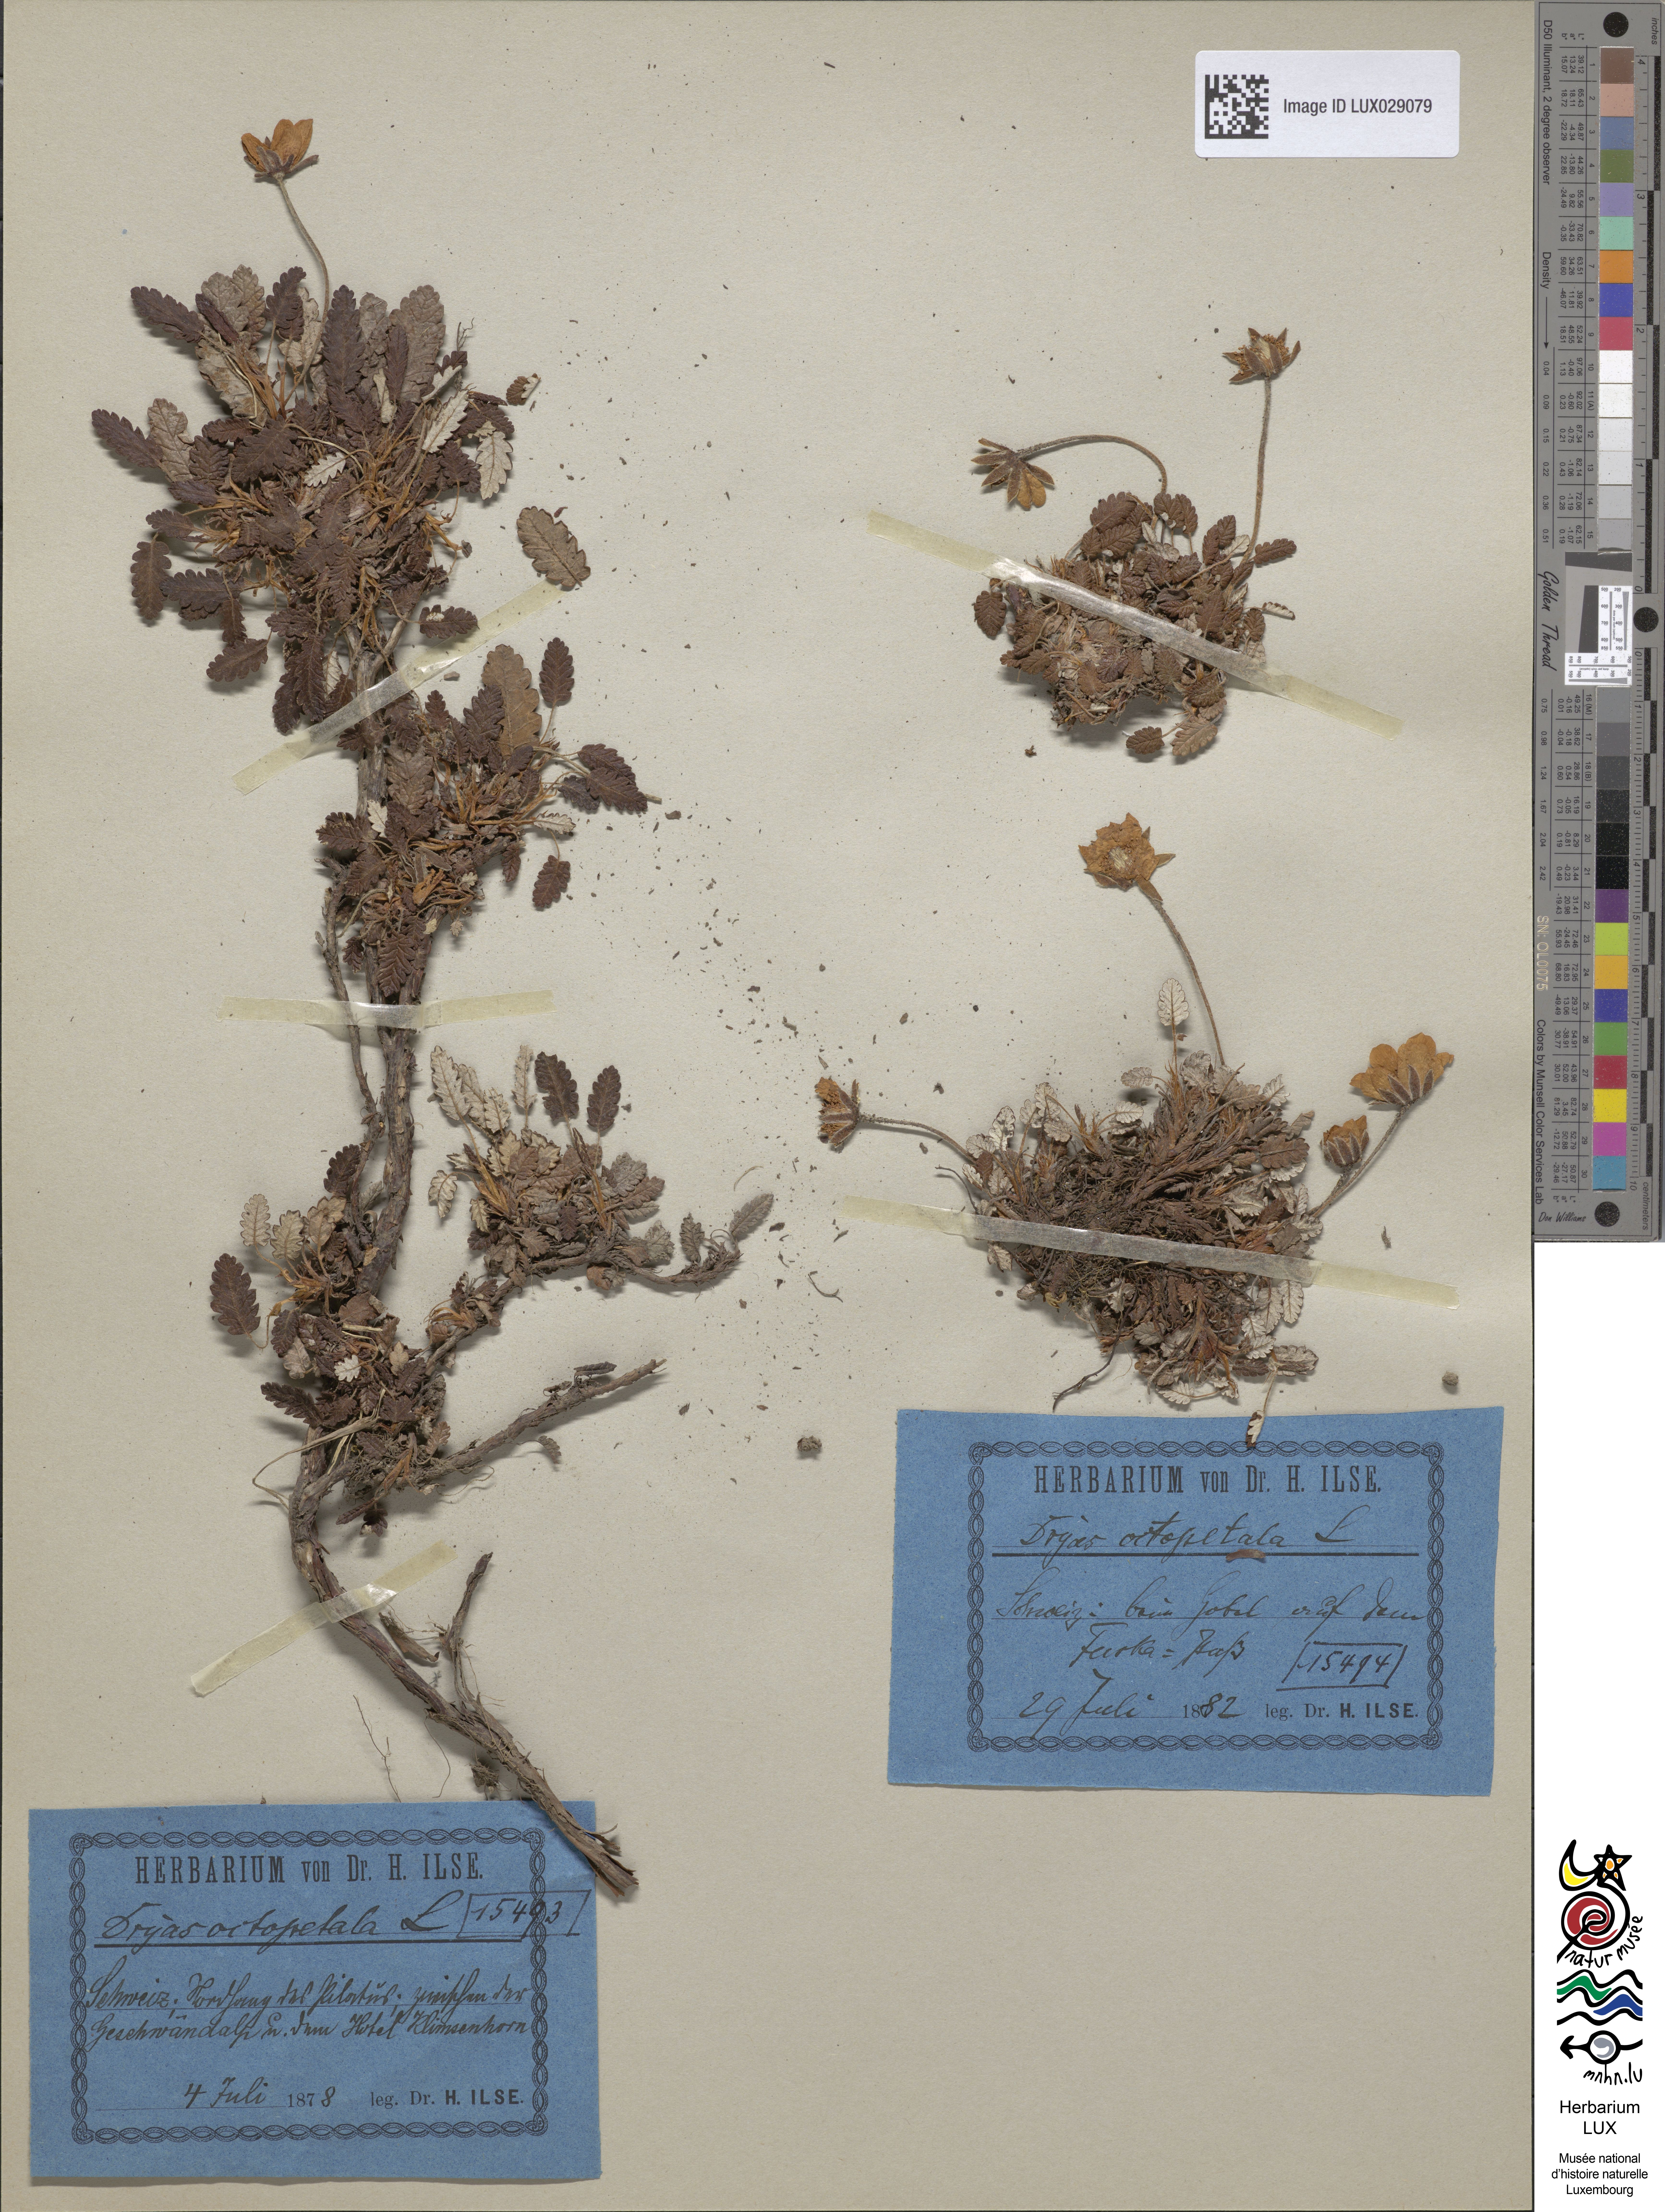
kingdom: Plantae
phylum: Tracheophyta
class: Magnoliopsida
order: Rosales
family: Rosaceae
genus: Dryas
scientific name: Dryas octopetala
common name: Eight-petal mountain-avens
